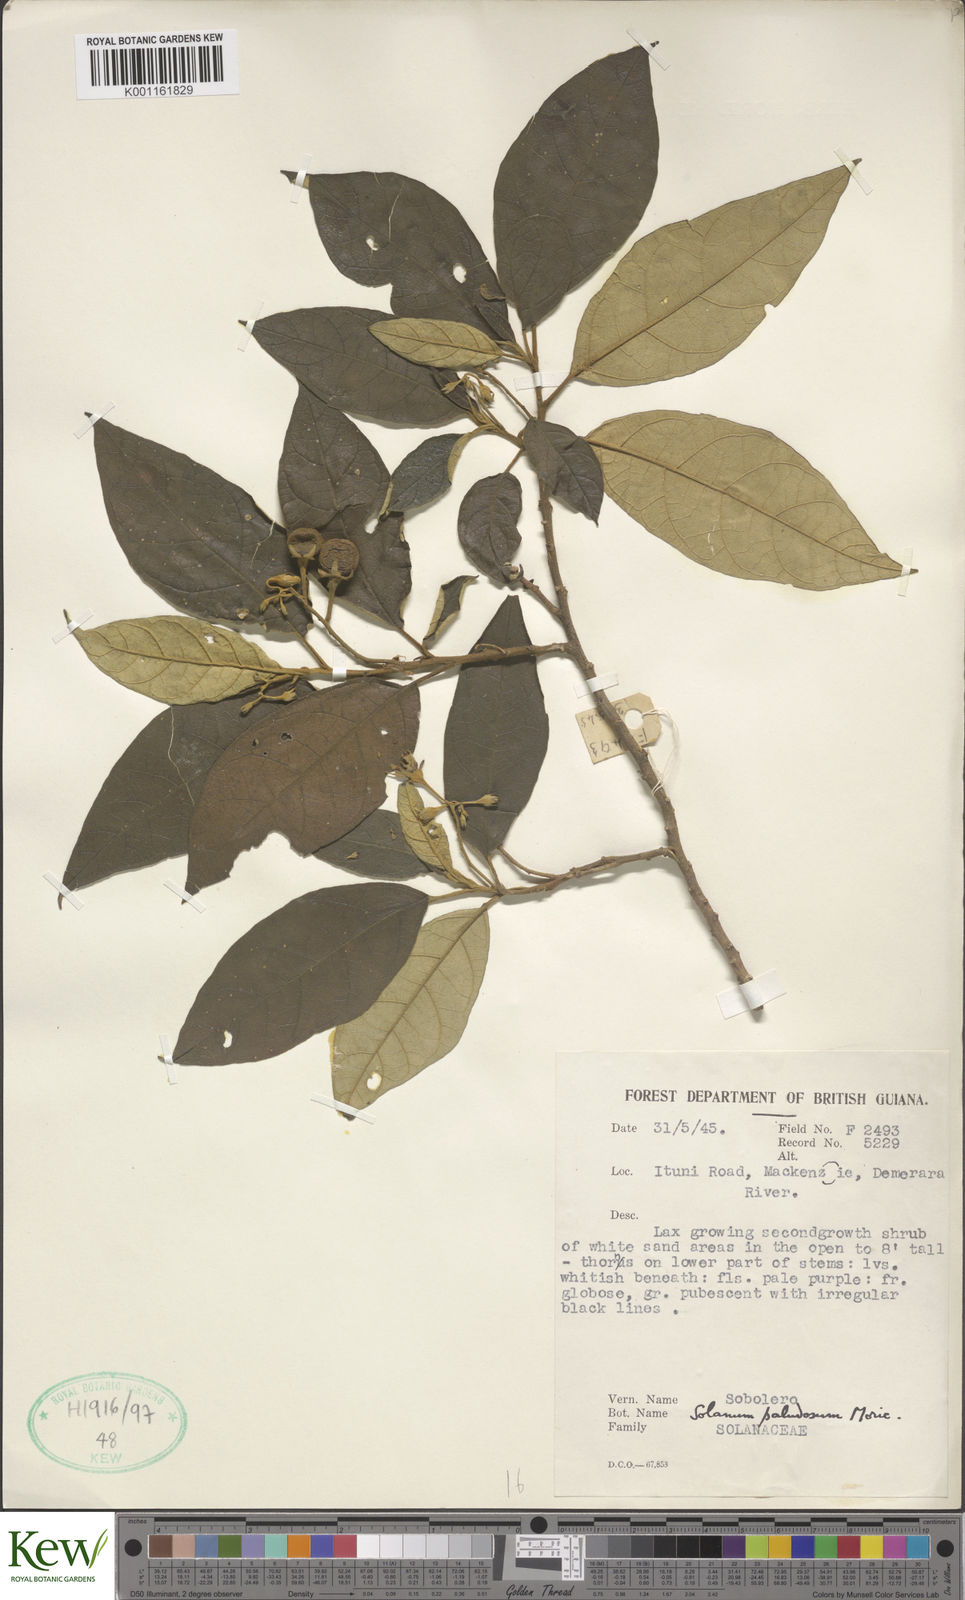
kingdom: Plantae
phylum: Tracheophyta
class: Magnoliopsida
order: Solanales
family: Solanaceae
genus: Solanum
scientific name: Solanum paludosum
